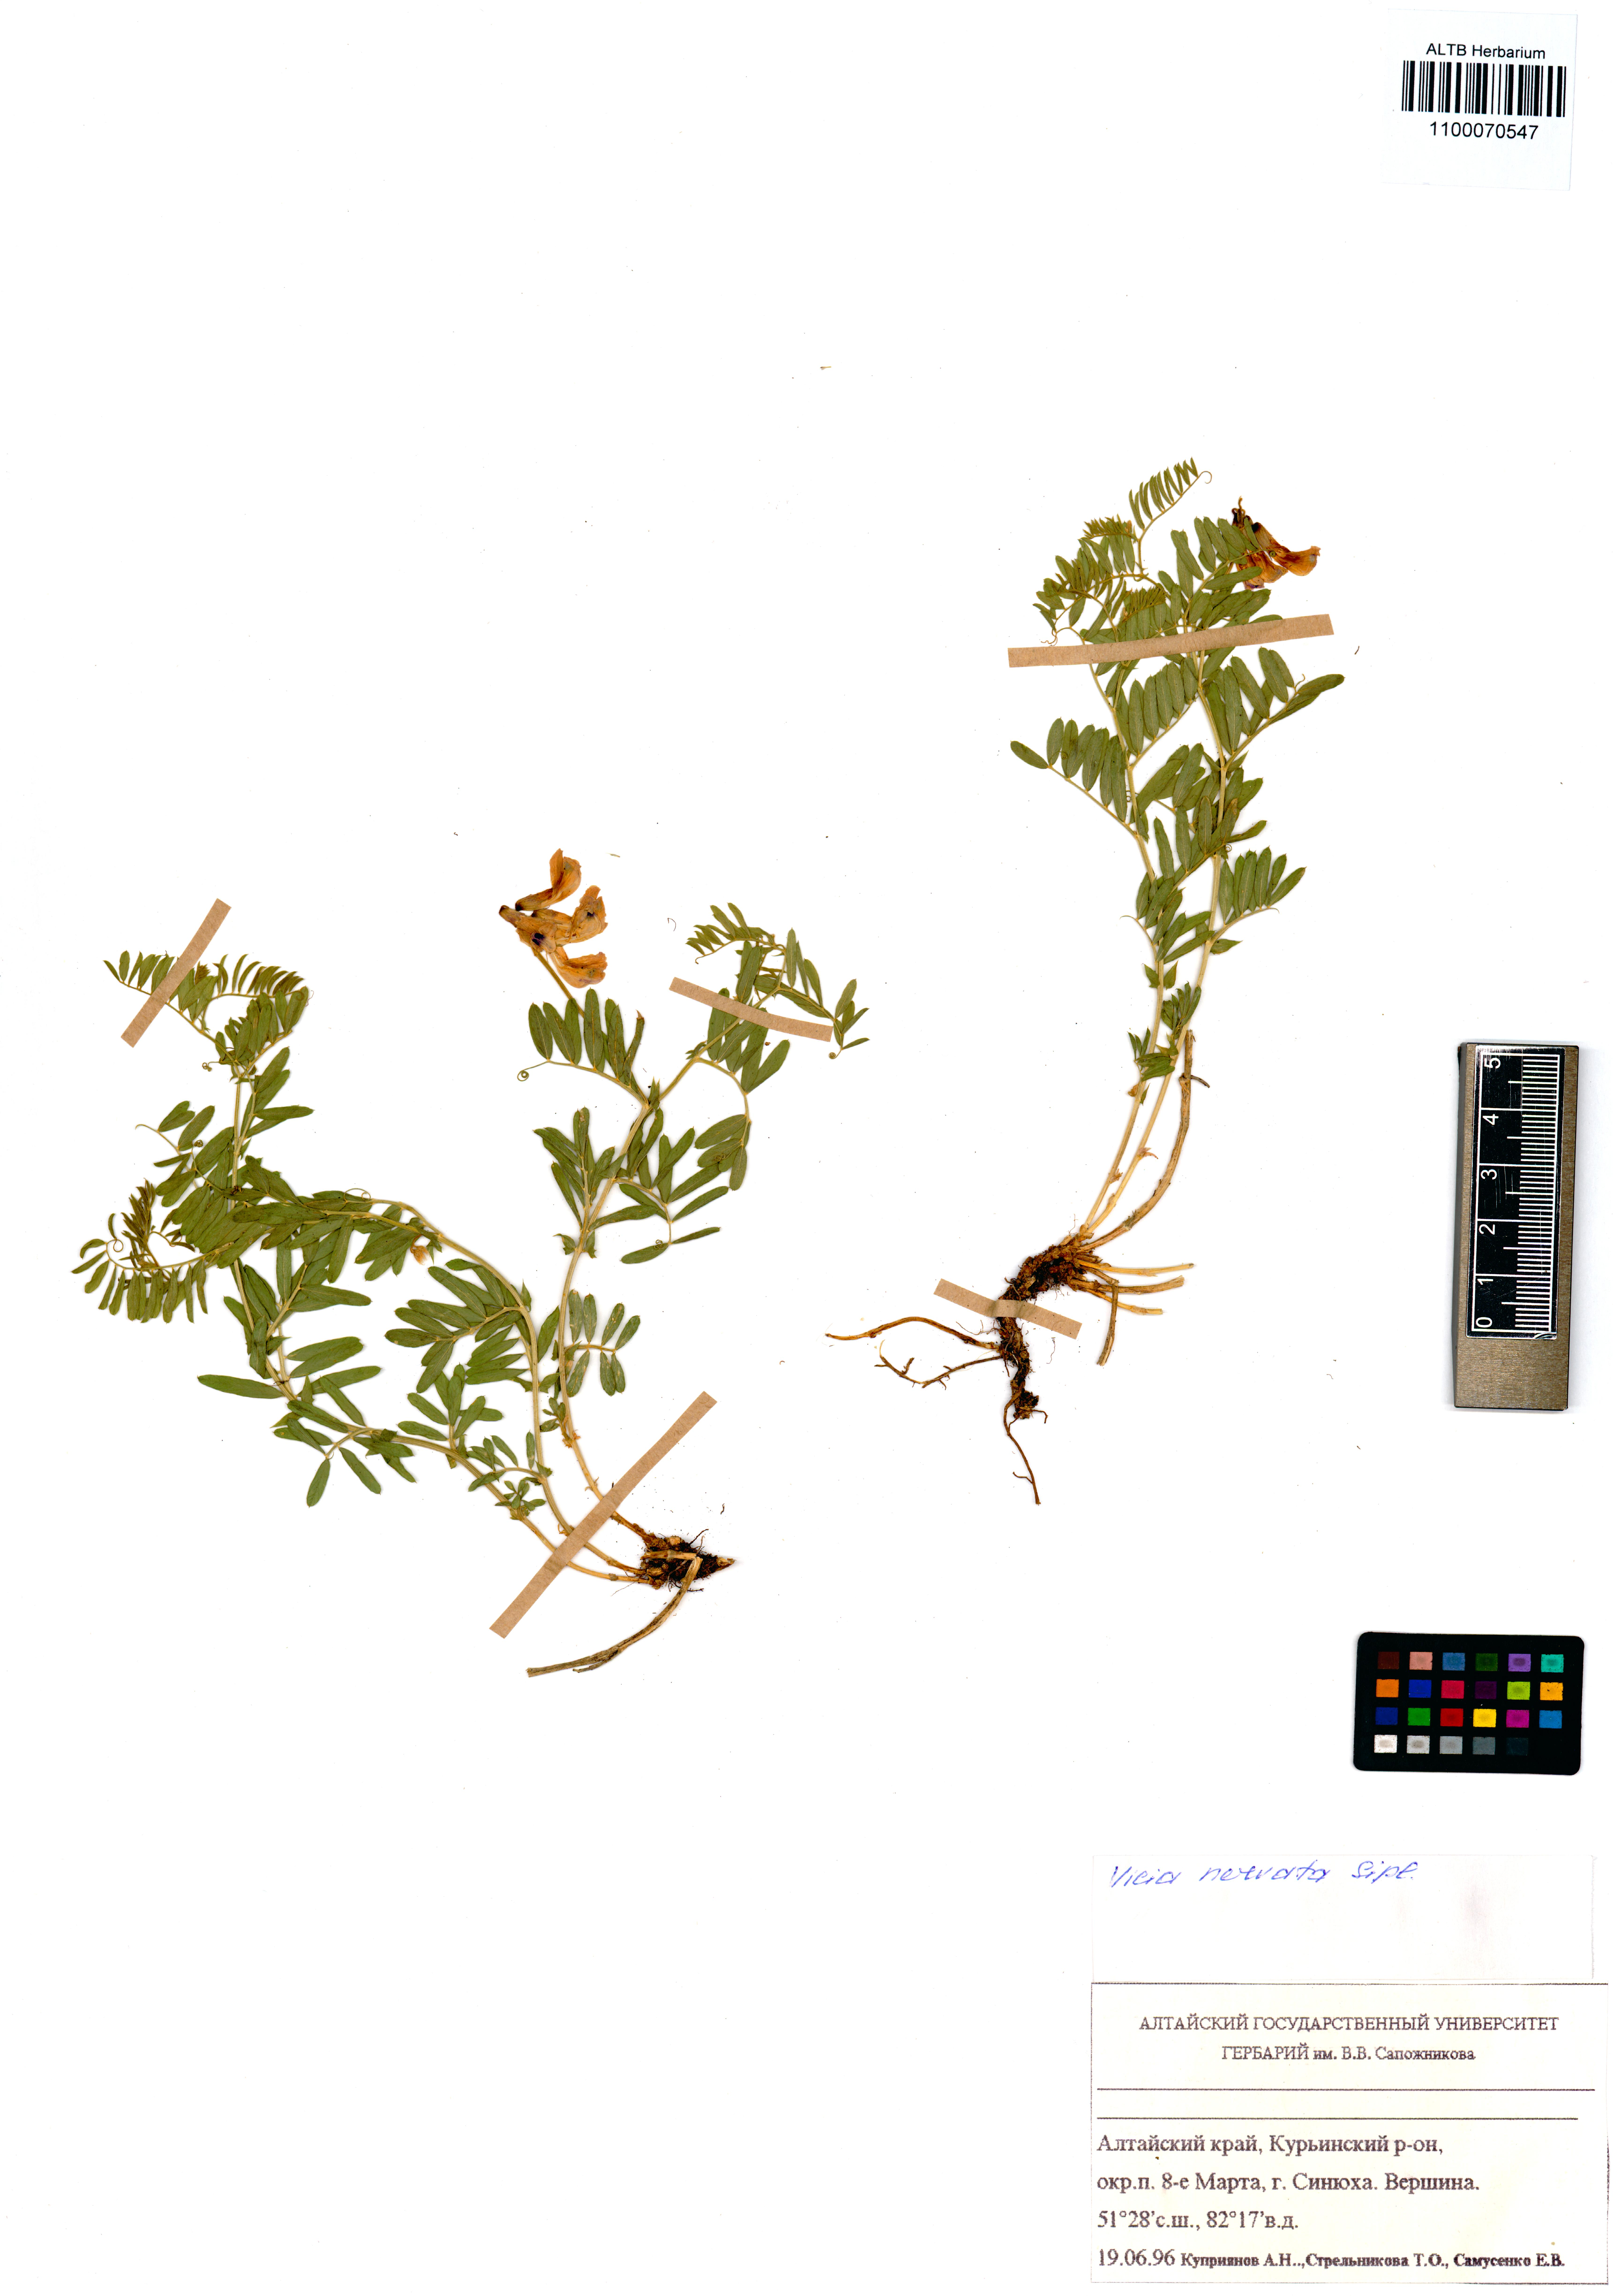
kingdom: Plantae
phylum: Tracheophyta
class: Magnoliopsida
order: Fabales
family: Fabaceae
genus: Vicia
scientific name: Vicia multicaulis
